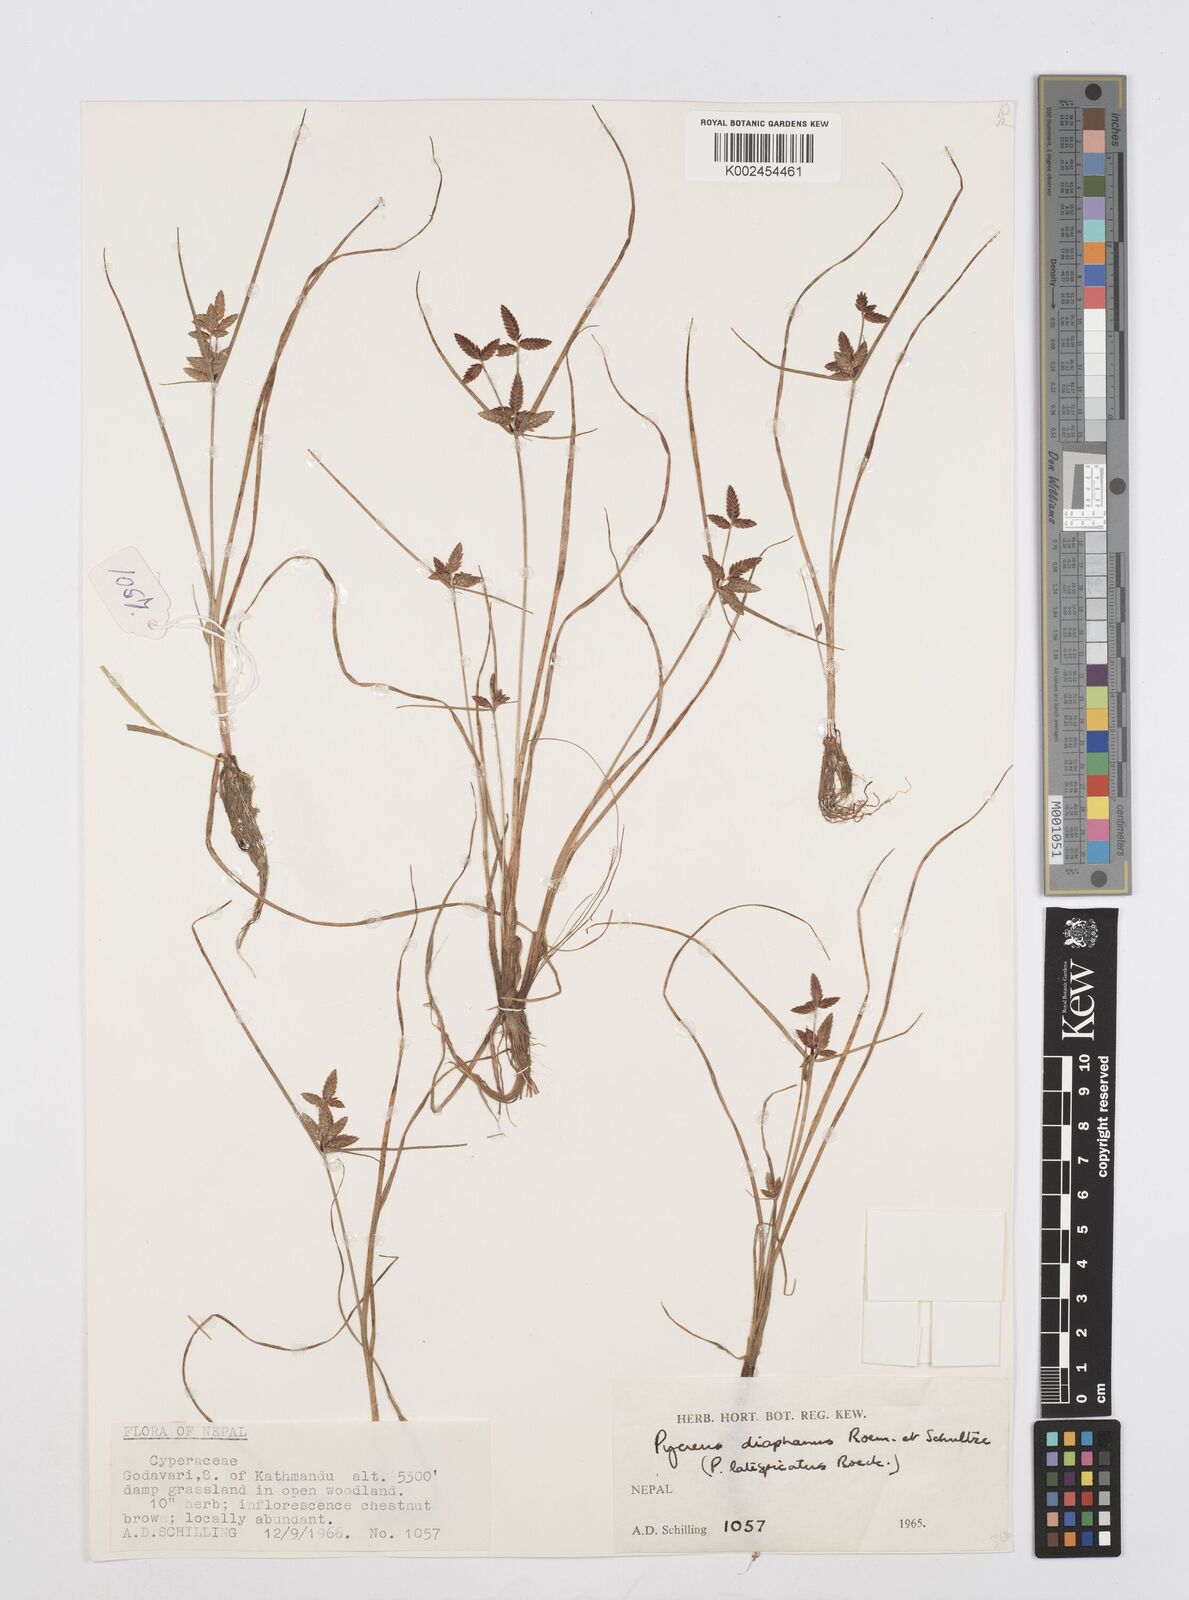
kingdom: Plantae
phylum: Tracheophyta
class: Liliopsida
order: Poales
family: Cyperaceae
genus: Cyperus
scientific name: Cyperus diaphanus
